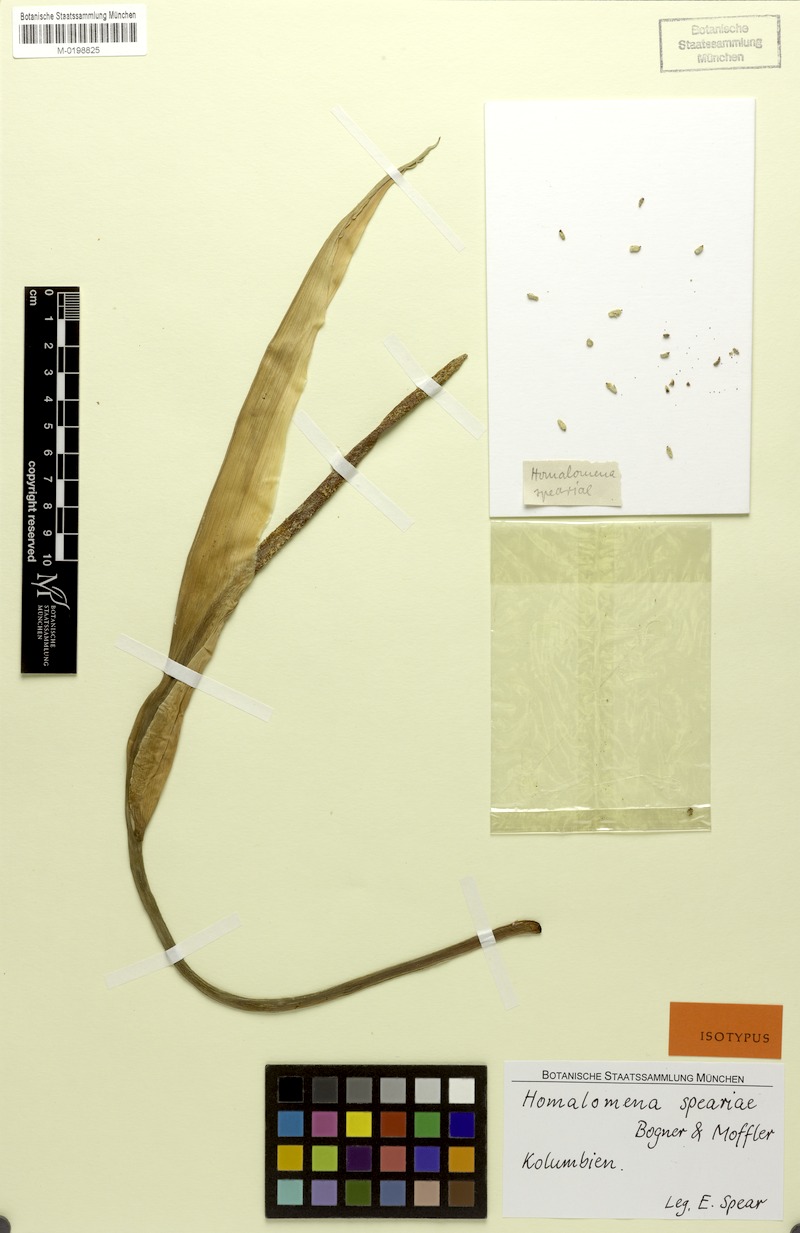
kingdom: Plantae
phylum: Tracheophyta
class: Liliopsida
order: Alismatales
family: Araceae
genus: Adelonema
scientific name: Adelonema speariae
